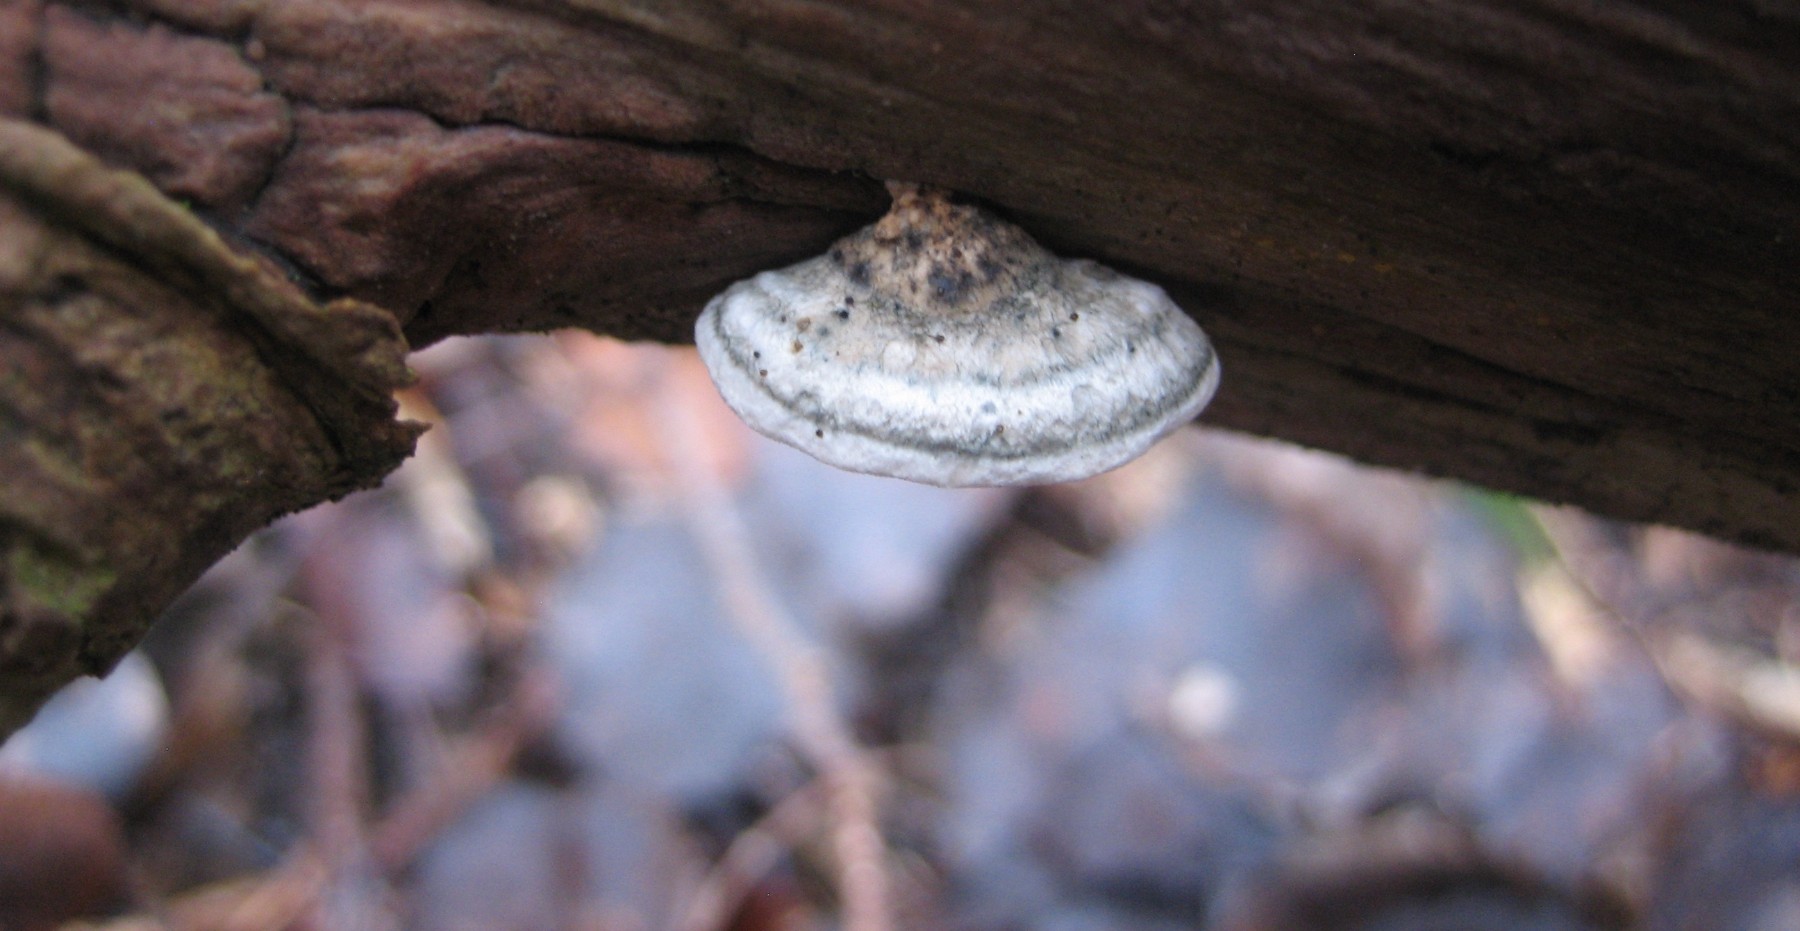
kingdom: Fungi
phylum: Basidiomycota
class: Agaricomycetes
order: Polyporales
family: Polyporaceae
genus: Cyanosporus
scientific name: Cyanosporus alni
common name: blegblå kødporesvamp
